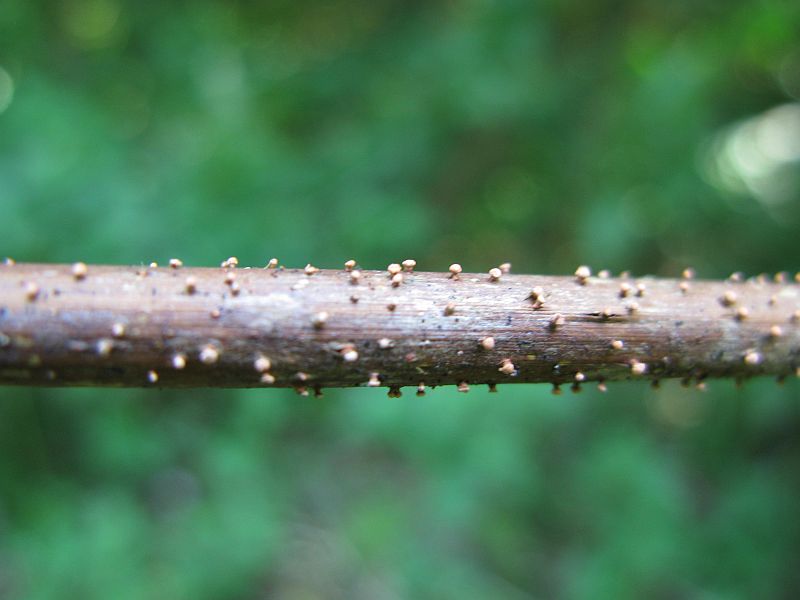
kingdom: Fungi
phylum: Ascomycota
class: Sordariomycetes
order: Hypocreales
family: Nectriaceae
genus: Nectria
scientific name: Nectria cinnabarina
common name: almindelig cinnobersvamp
